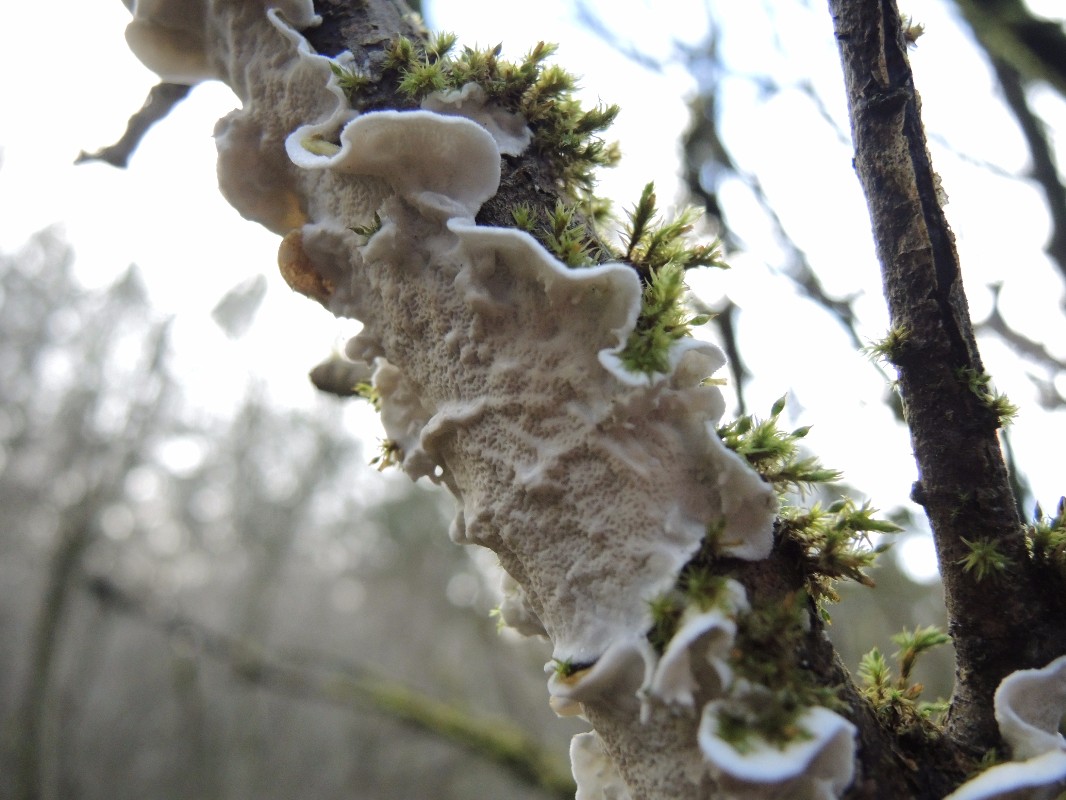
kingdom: Fungi
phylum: Basidiomycota
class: Agaricomycetes
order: Polyporales
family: Irpicaceae
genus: Byssomerulius
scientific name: Byssomerulius corium
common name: læder-åresvamp
